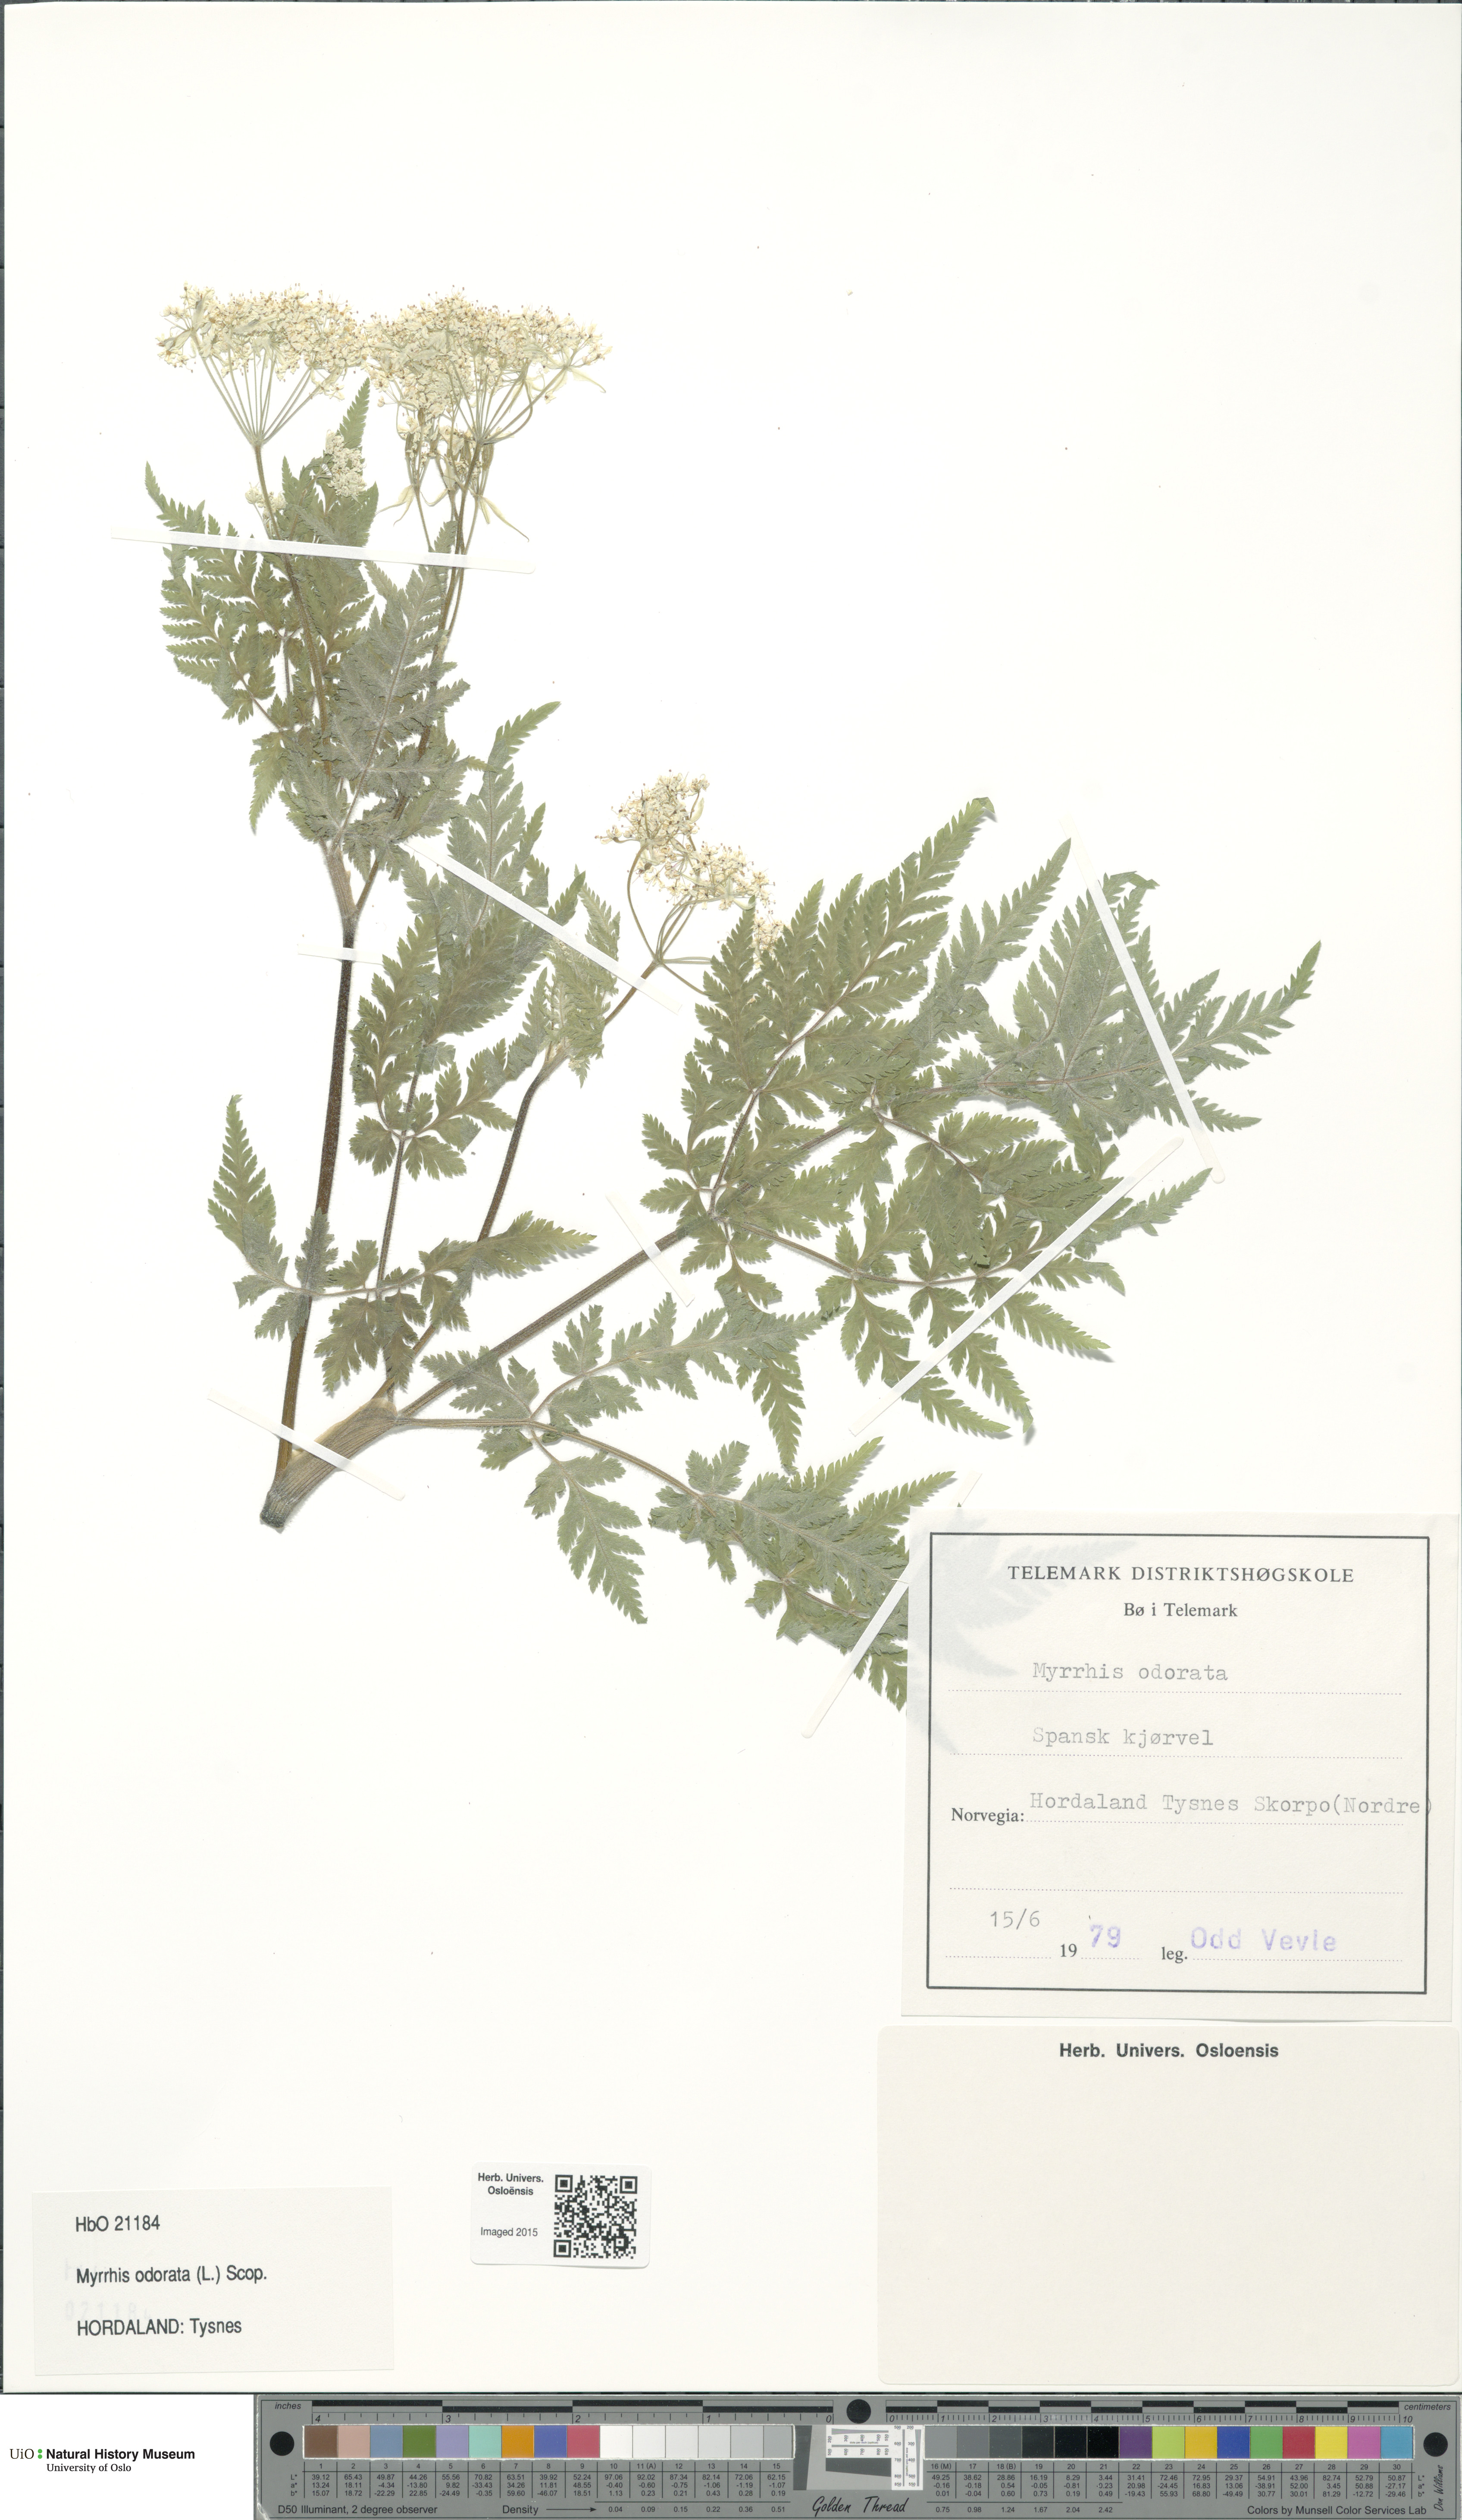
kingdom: Plantae
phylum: Tracheophyta
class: Magnoliopsida
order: Apiales
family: Apiaceae
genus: Myrrhis
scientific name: Myrrhis odorata
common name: Sweet cicely
